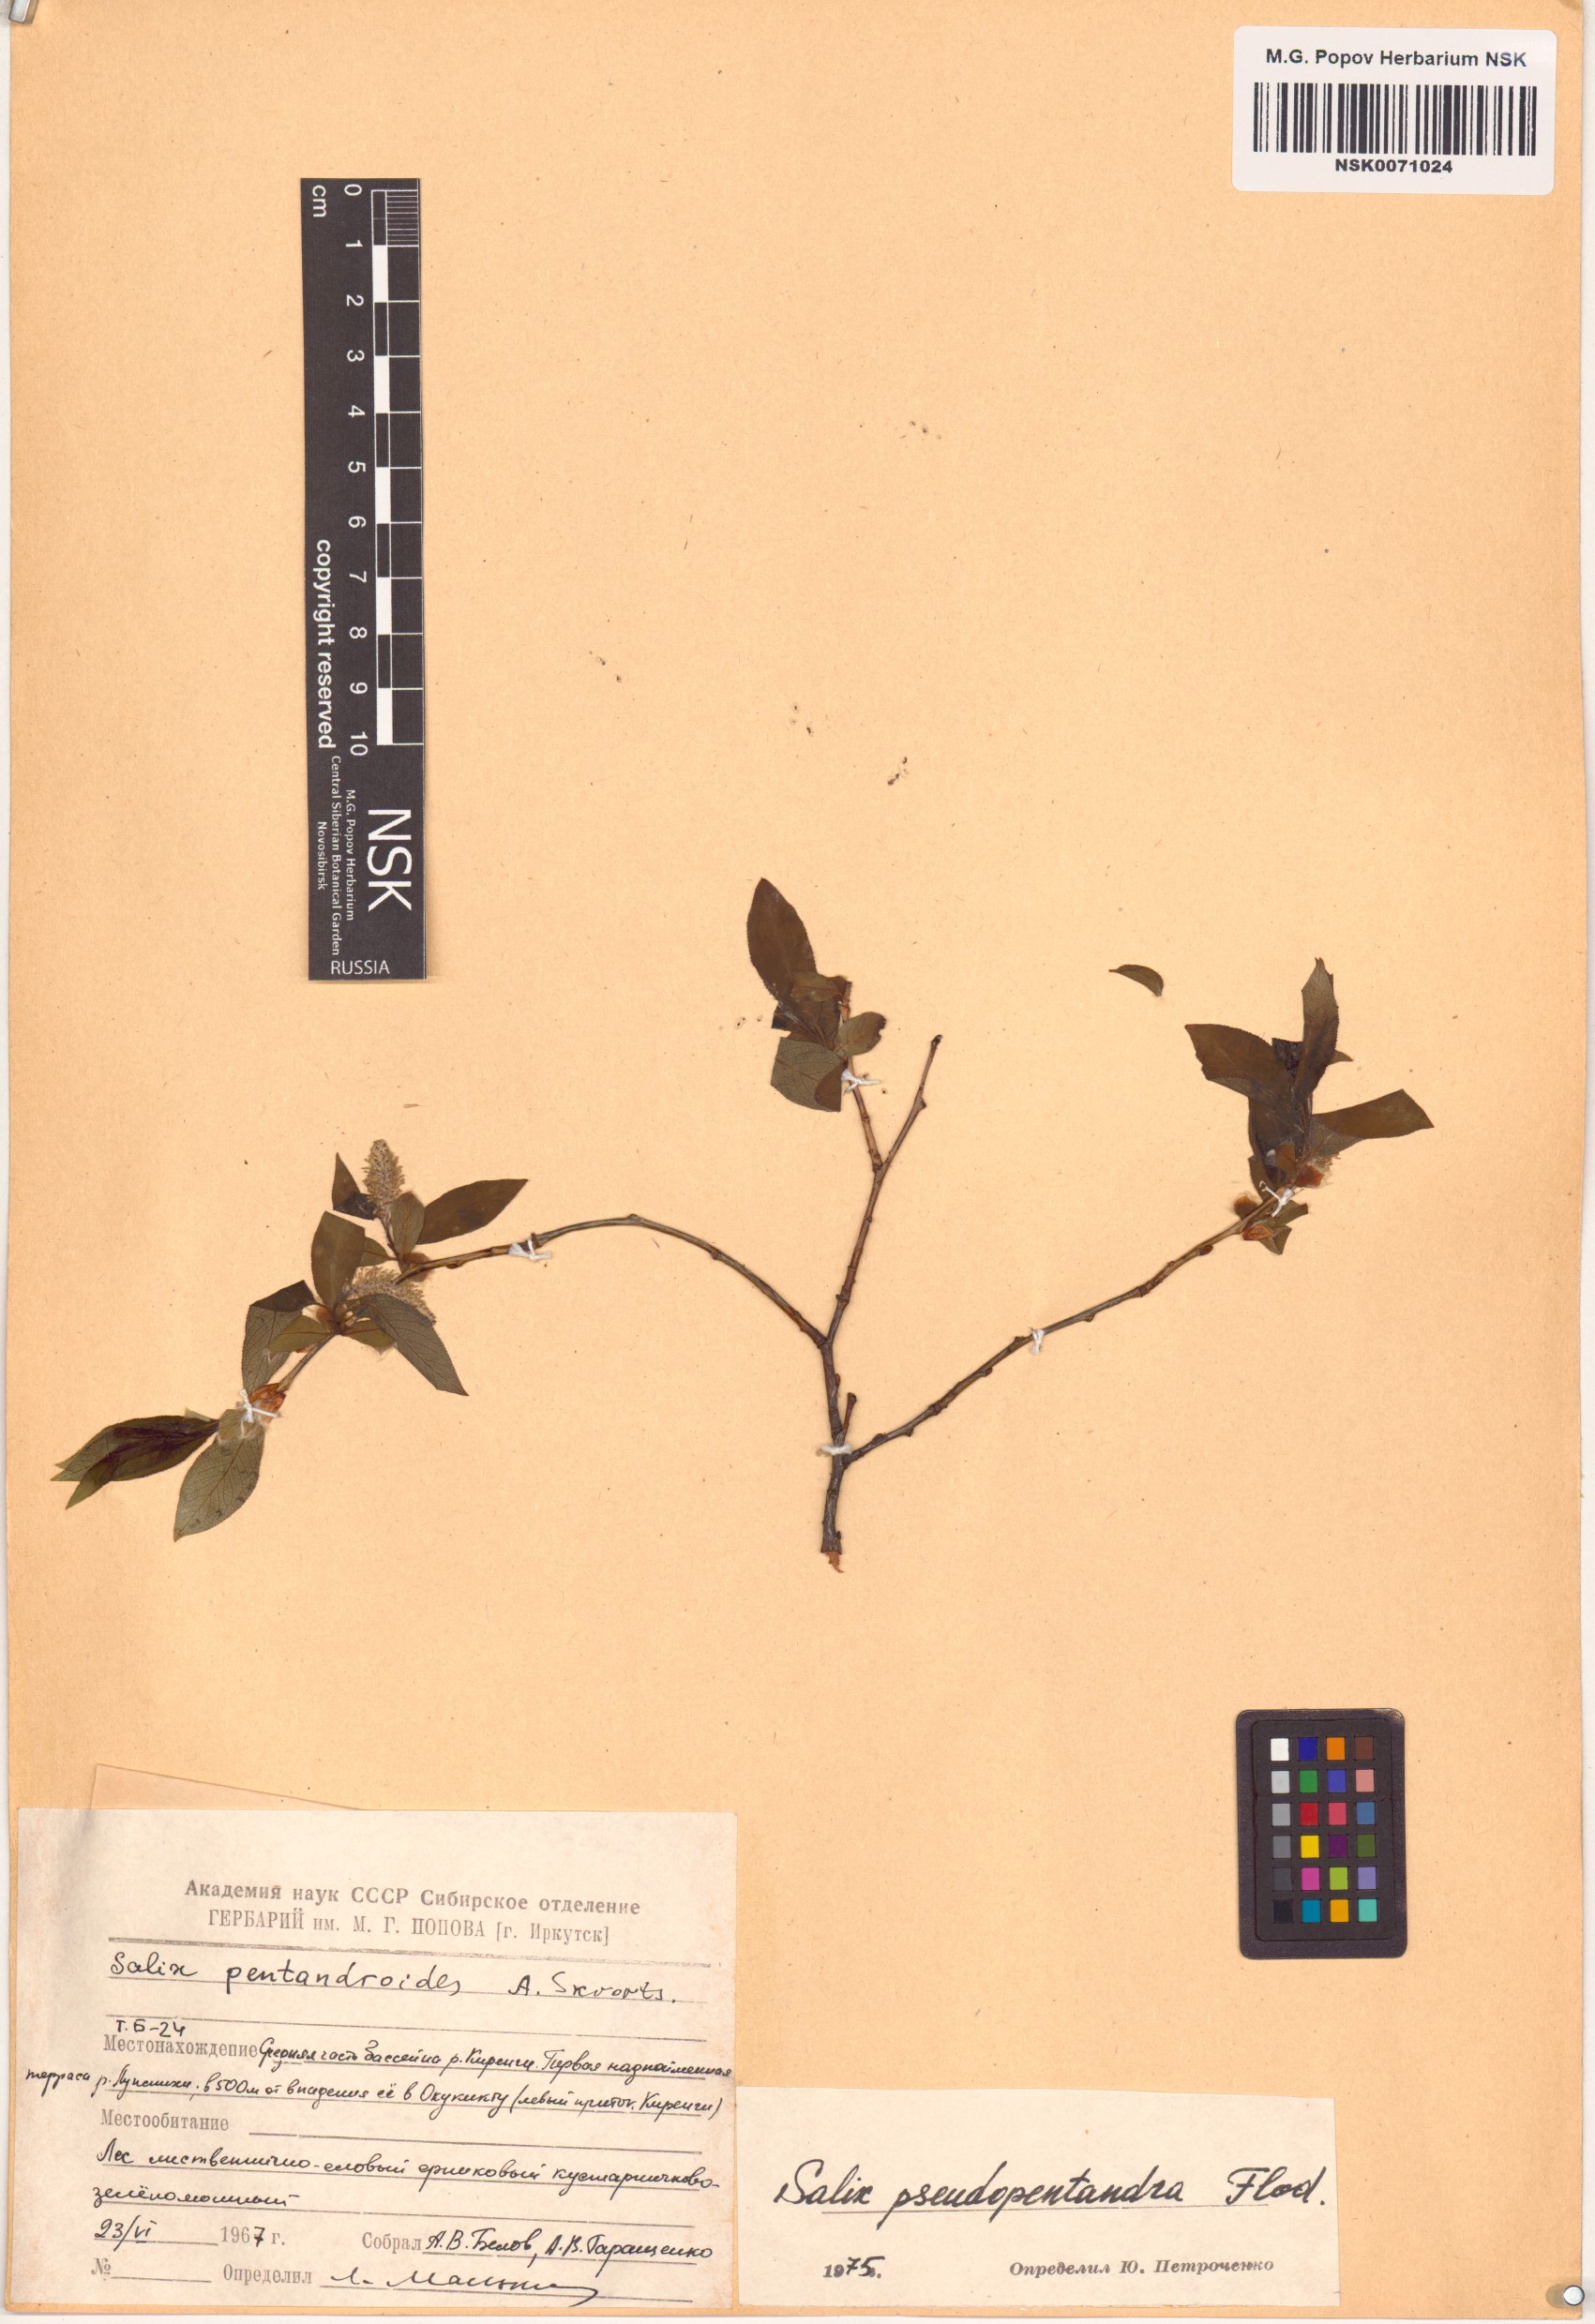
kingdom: Plantae
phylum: Tracheophyta
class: Magnoliopsida
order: Malpighiales
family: Salicaceae
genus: Salix
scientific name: Salix pseudopentandra
